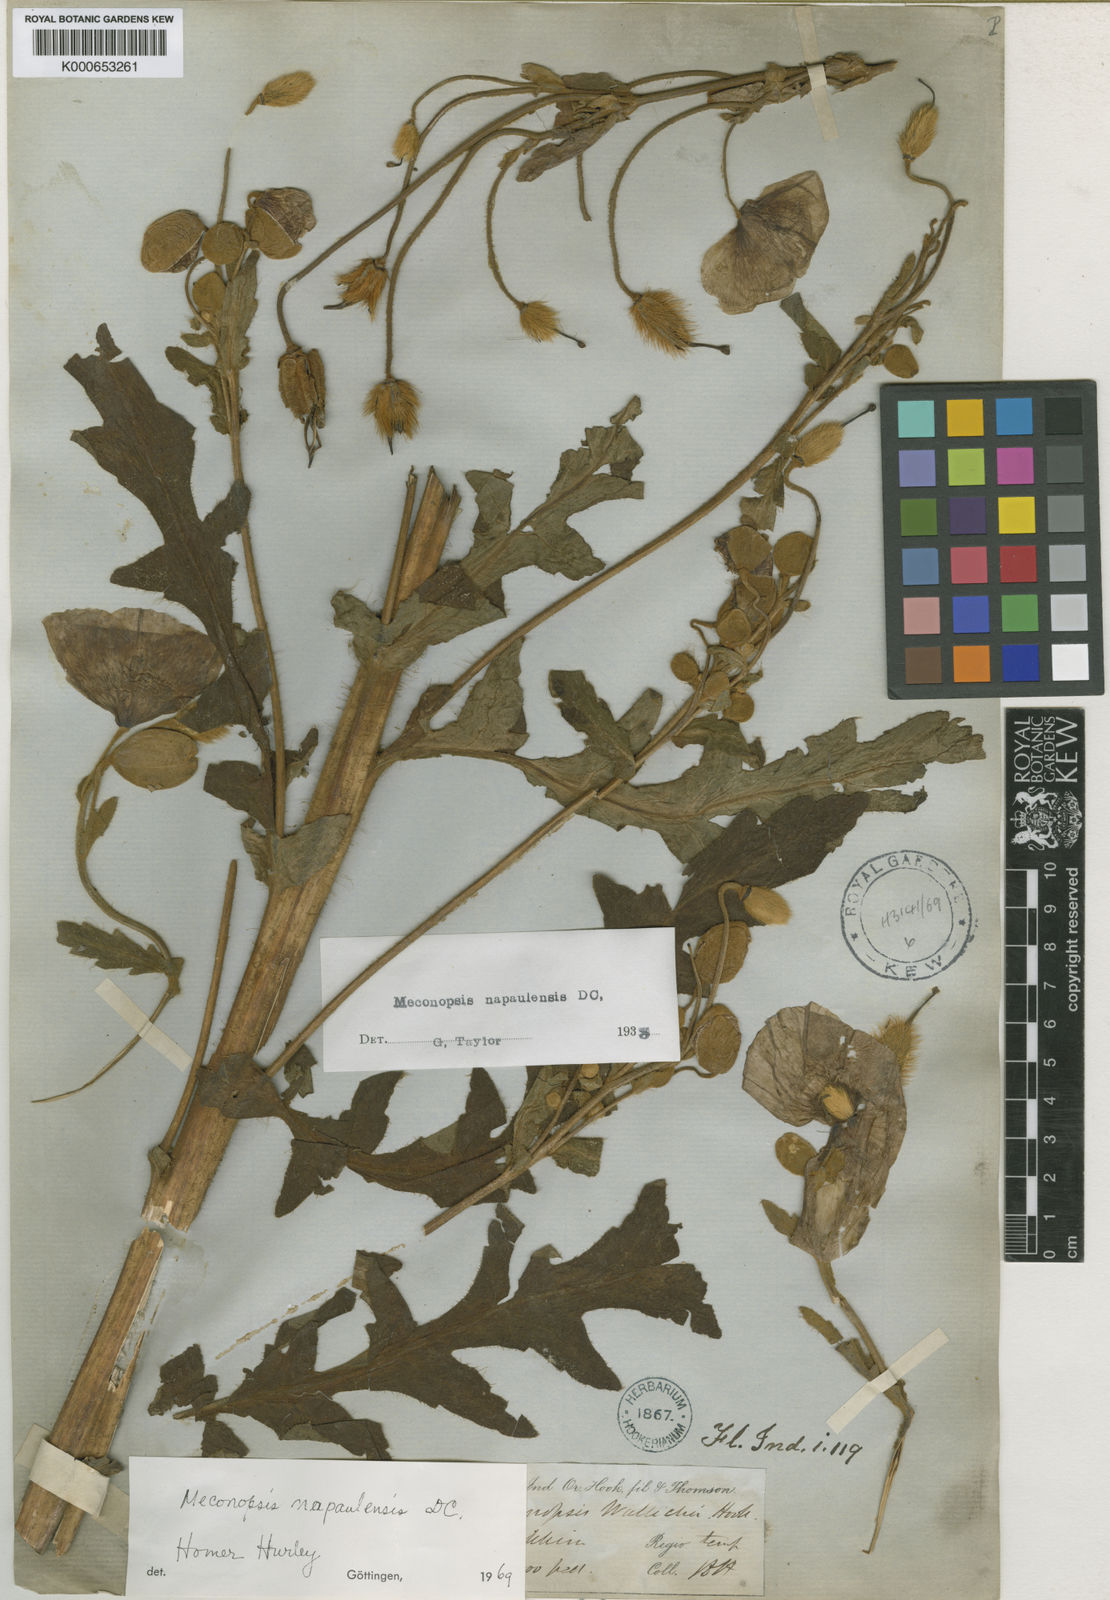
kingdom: Plantae
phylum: Tracheophyta
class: Magnoliopsida
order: Ranunculales
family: Papaveraceae
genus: Meconopsis
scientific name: Meconopsis napaulensis
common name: Satin-poppy
